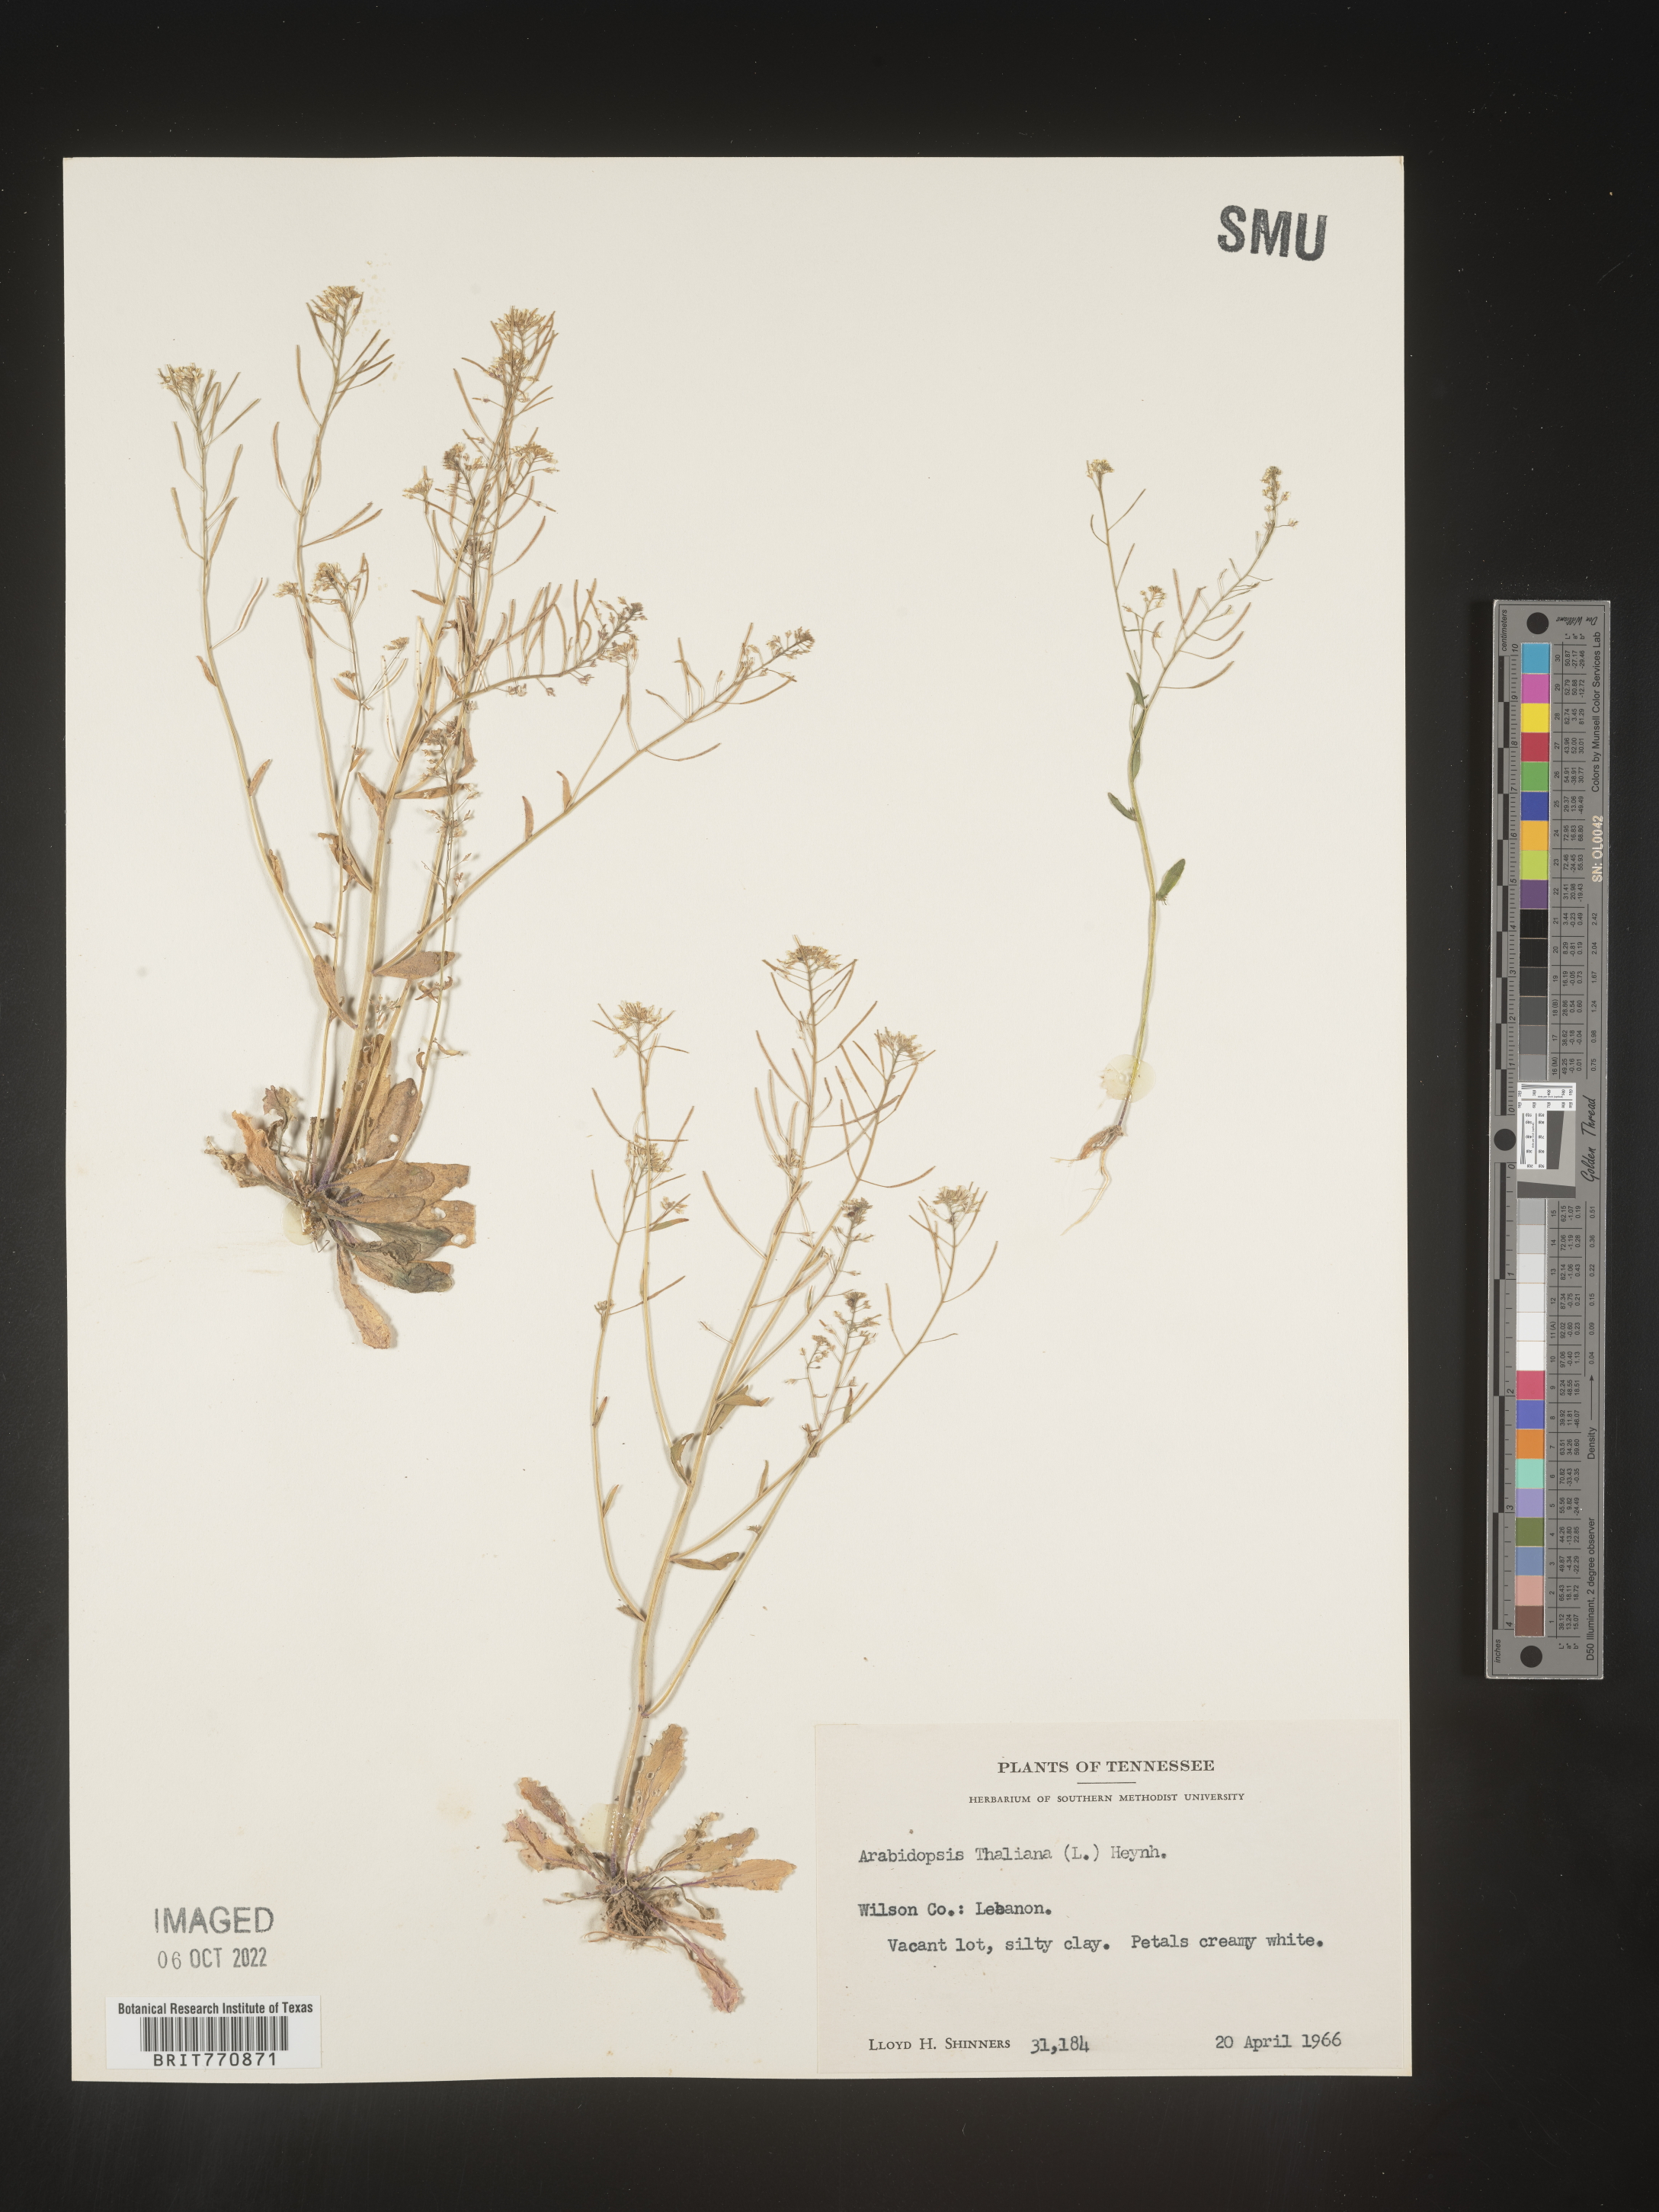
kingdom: Plantae
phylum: Tracheophyta
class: Magnoliopsida
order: Brassicales
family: Brassicaceae
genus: Arabidopsis
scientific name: Arabidopsis thaliana
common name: Thale cress
